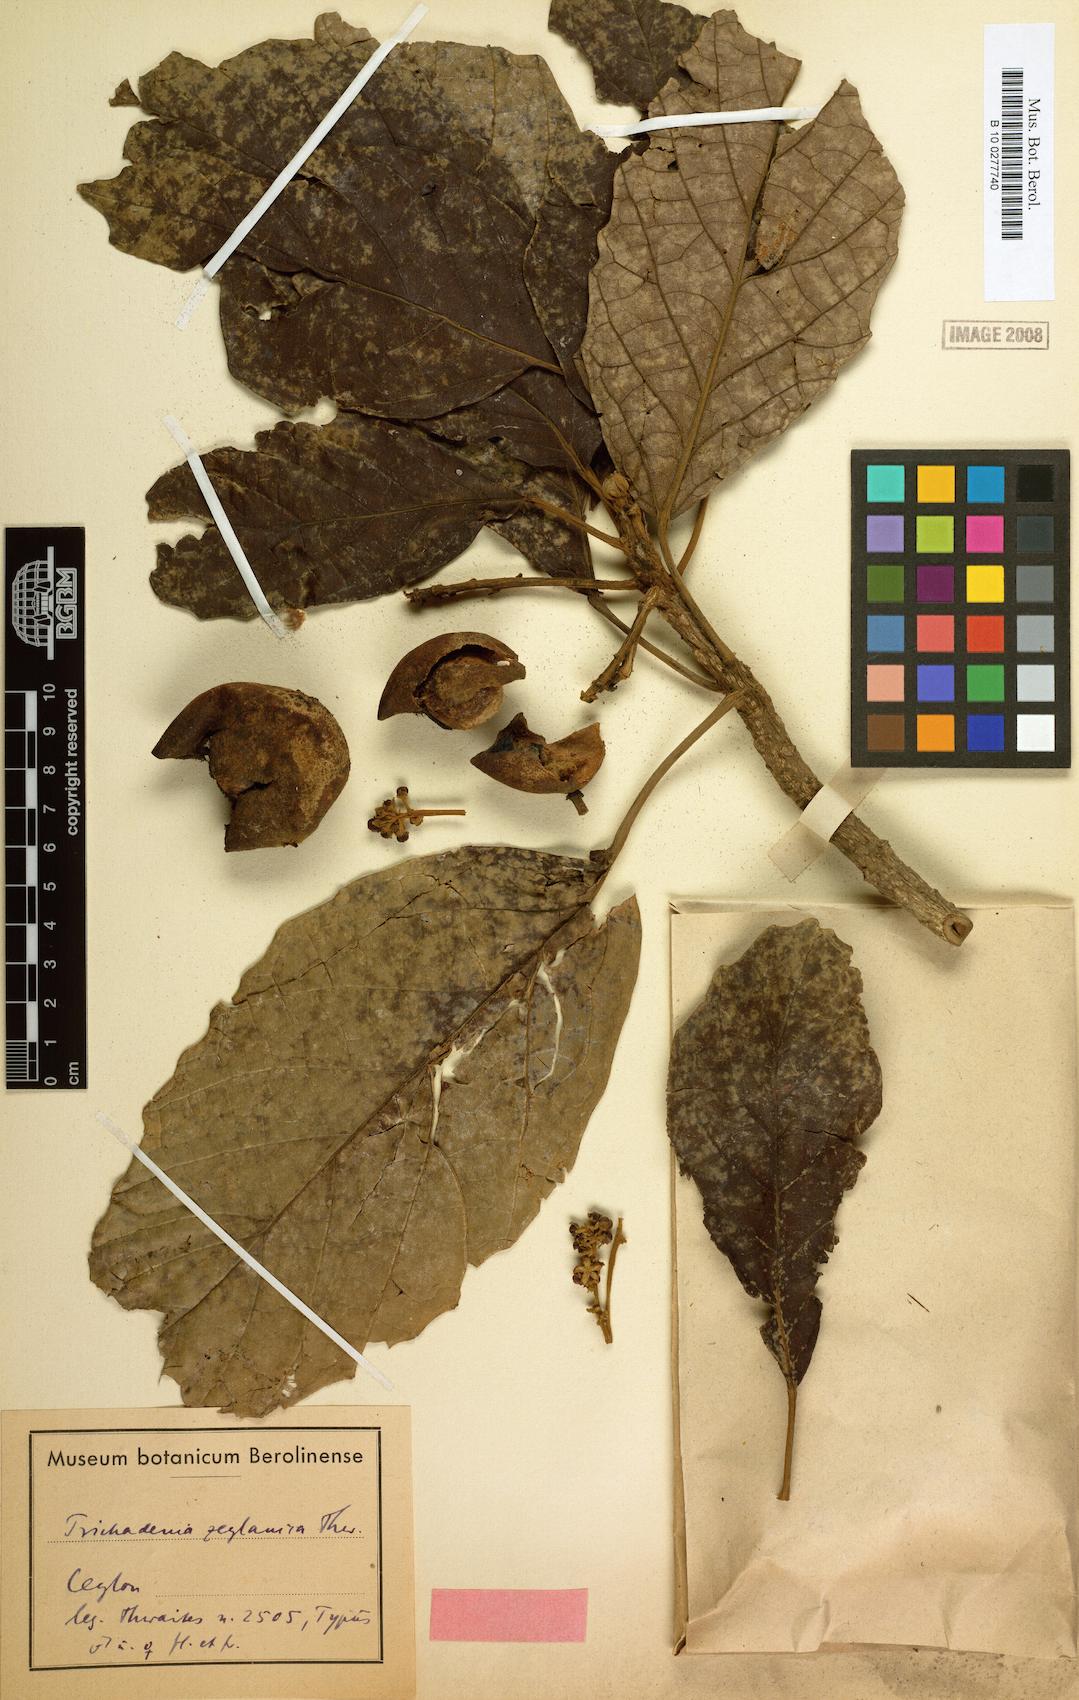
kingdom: Plantae
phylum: Tracheophyta
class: Magnoliopsida
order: Malpighiales
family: Achariaceae
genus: Trichadenia
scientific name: Trichadenia zeylanica
